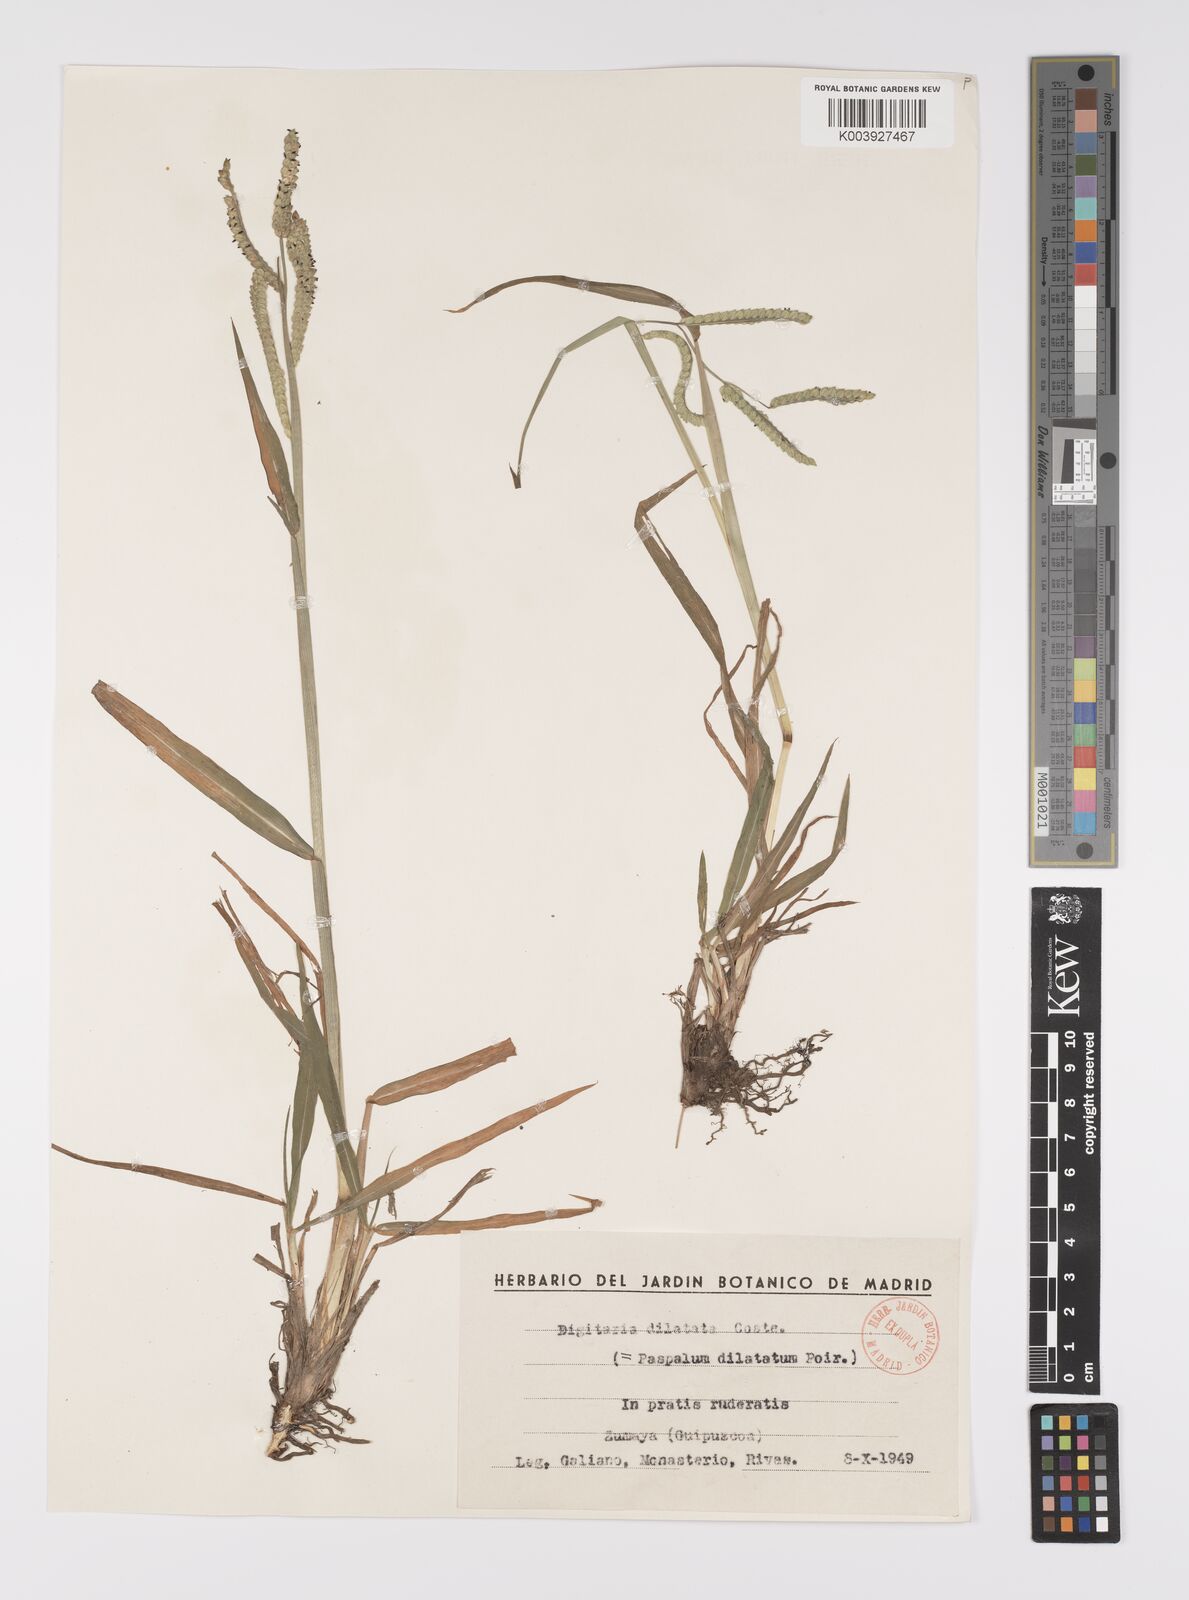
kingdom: Plantae
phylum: Tracheophyta
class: Liliopsida
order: Poales
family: Poaceae
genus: Paspalum
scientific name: Paspalum dilatatum
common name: Dallisgrass
